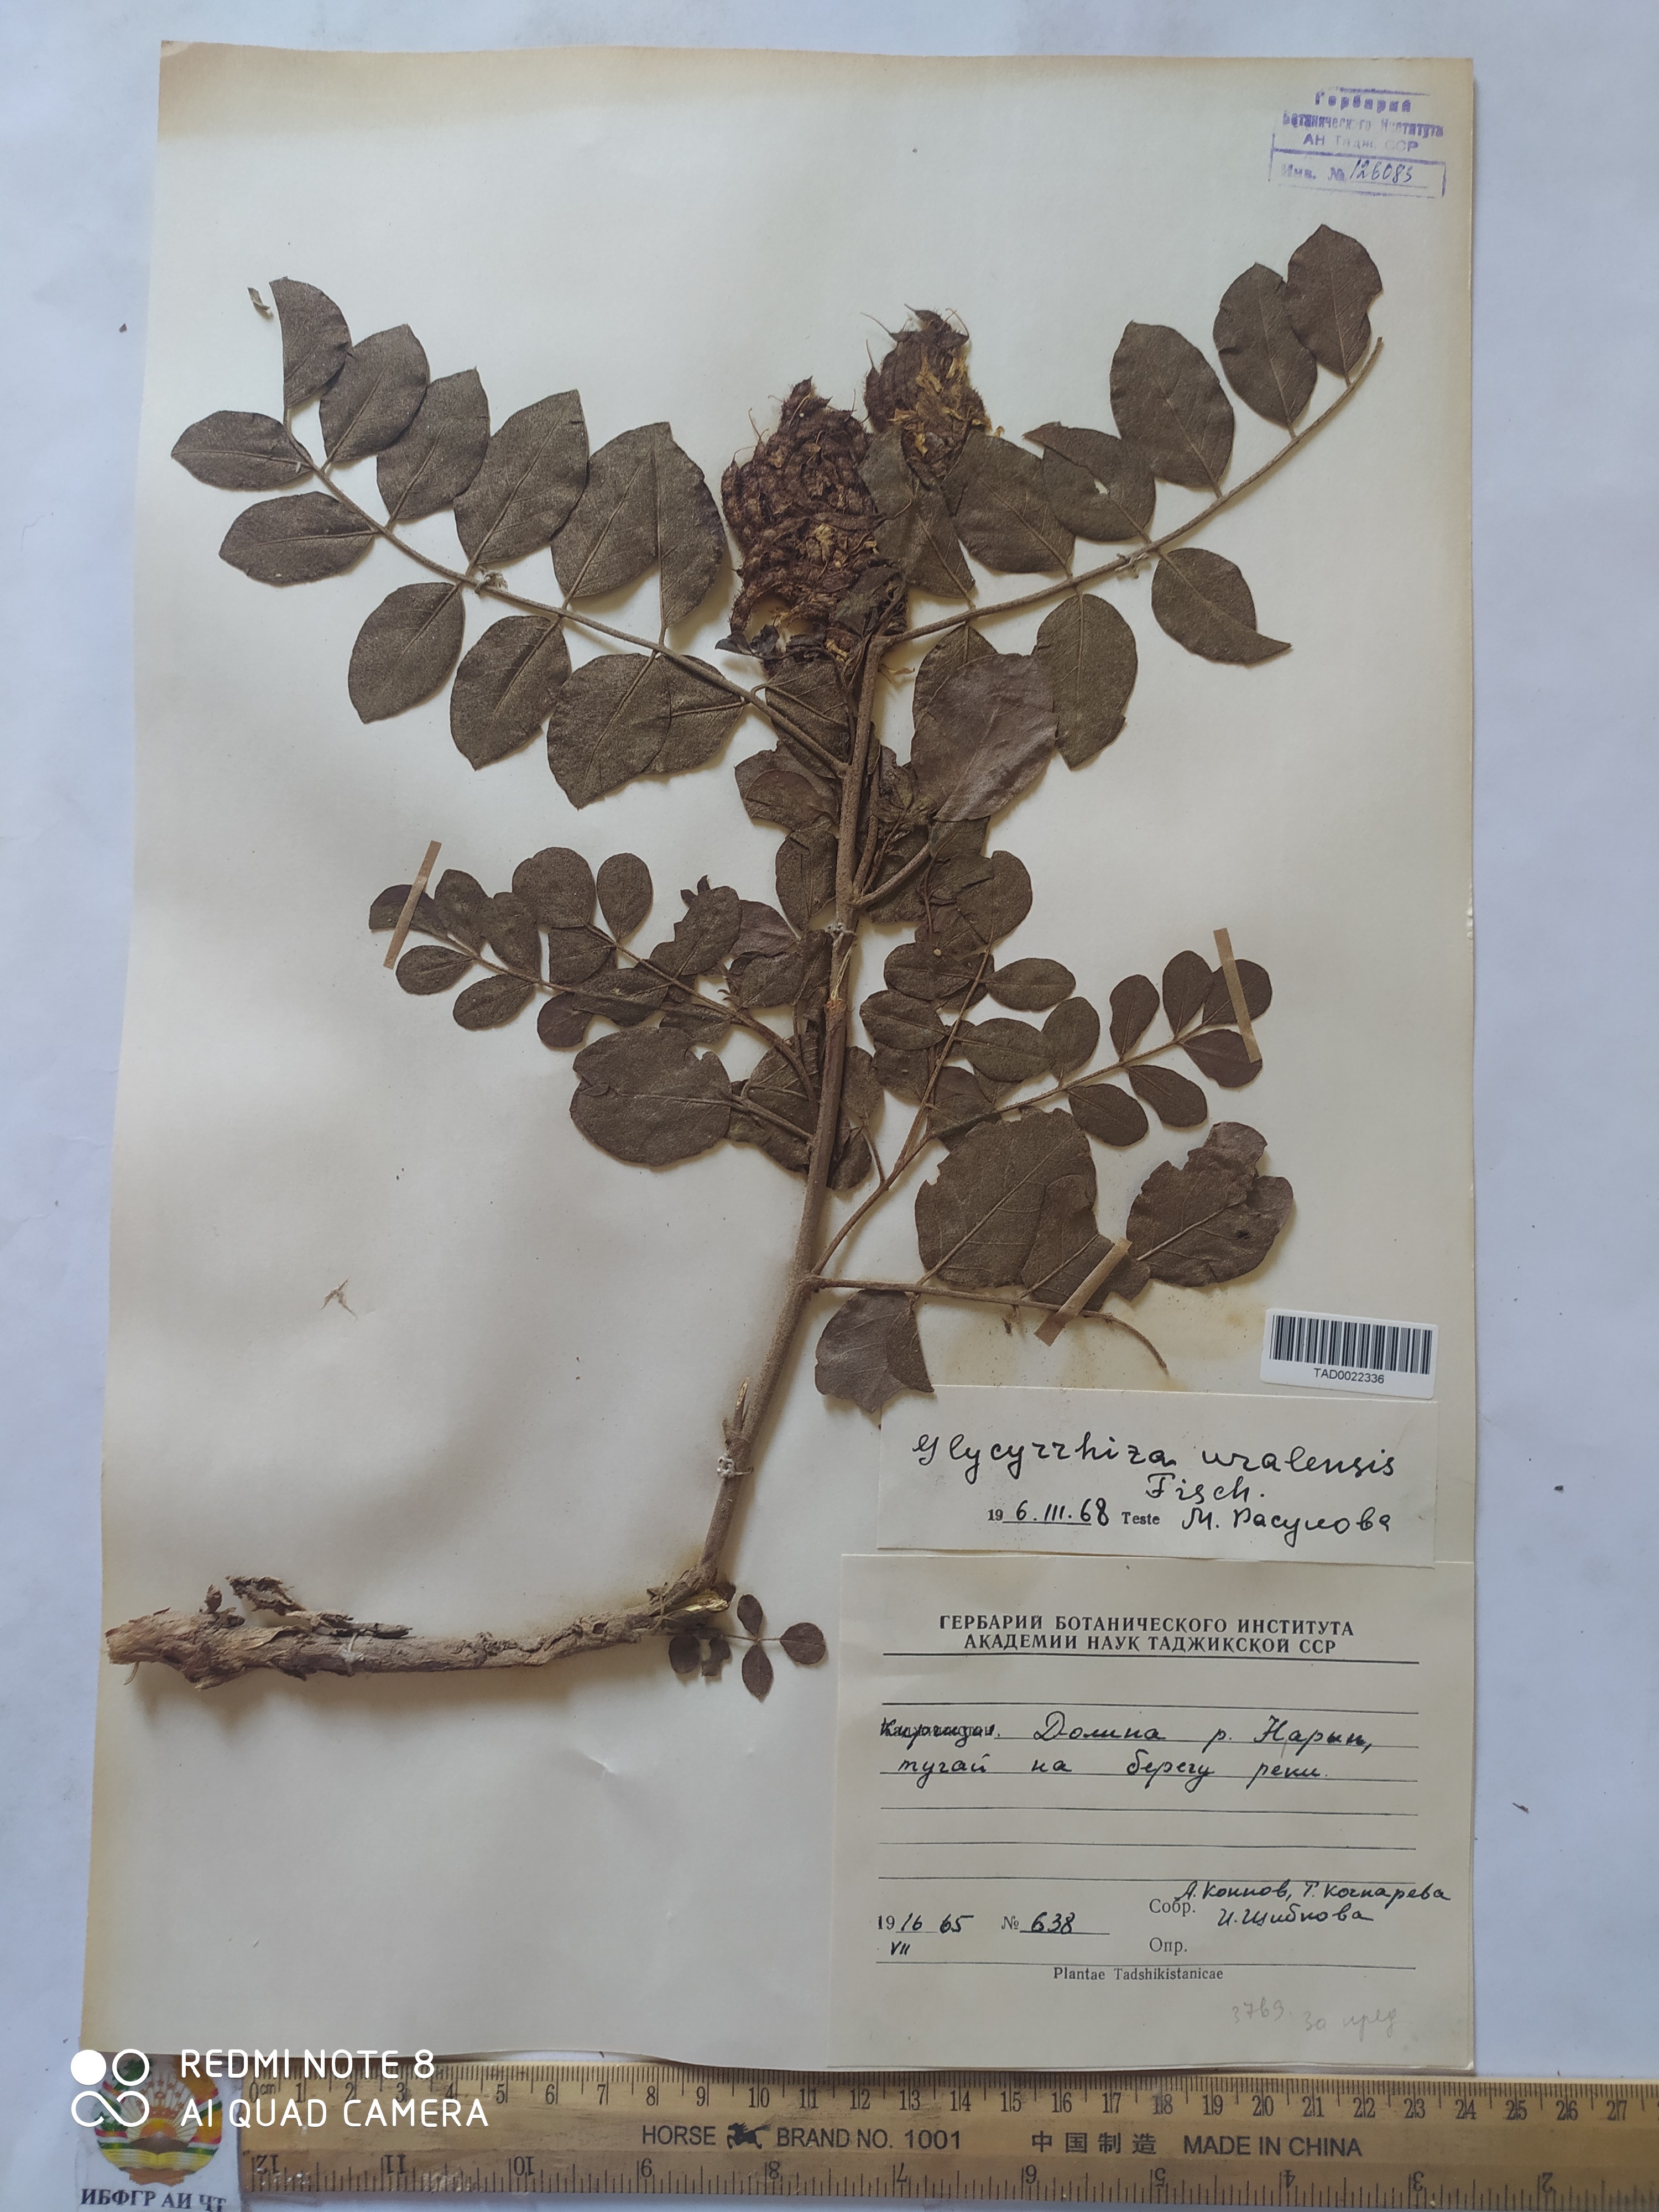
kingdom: Plantae
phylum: Tracheophyta
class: Magnoliopsida
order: Fabales
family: Fabaceae
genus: Glycyrrhiza
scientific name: Glycyrrhiza uralensis
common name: Chinese licorice
